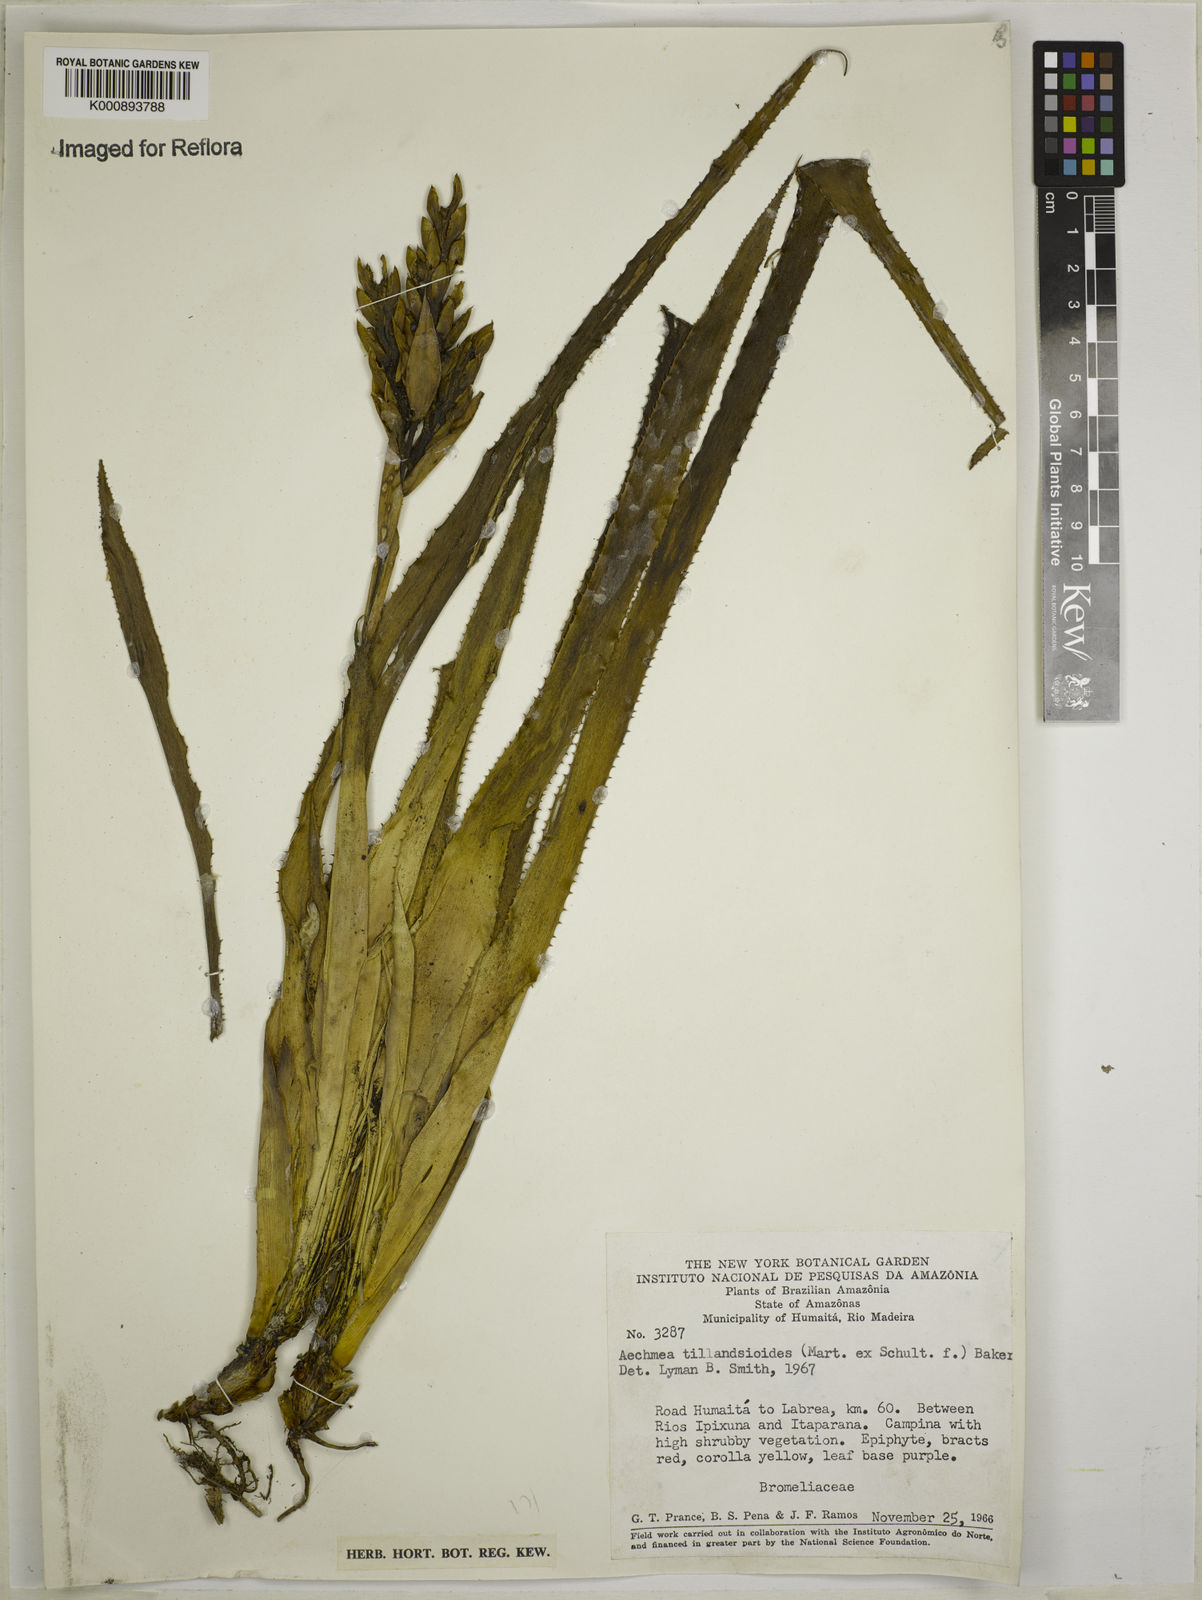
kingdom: Plantae
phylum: Tracheophyta
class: Liliopsida
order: Poales
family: Bromeliaceae
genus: Aechmea
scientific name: Aechmea tillandsioides
